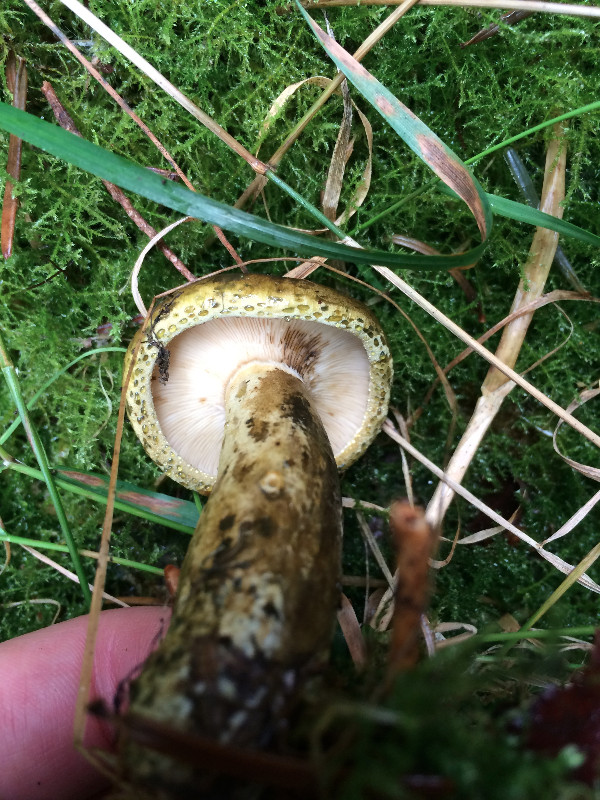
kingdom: Fungi
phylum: Basidiomycota
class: Agaricomycetes
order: Russulales
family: Russulaceae
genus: Lactarius
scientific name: Lactarius necator
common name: manddraber-mælkehat
